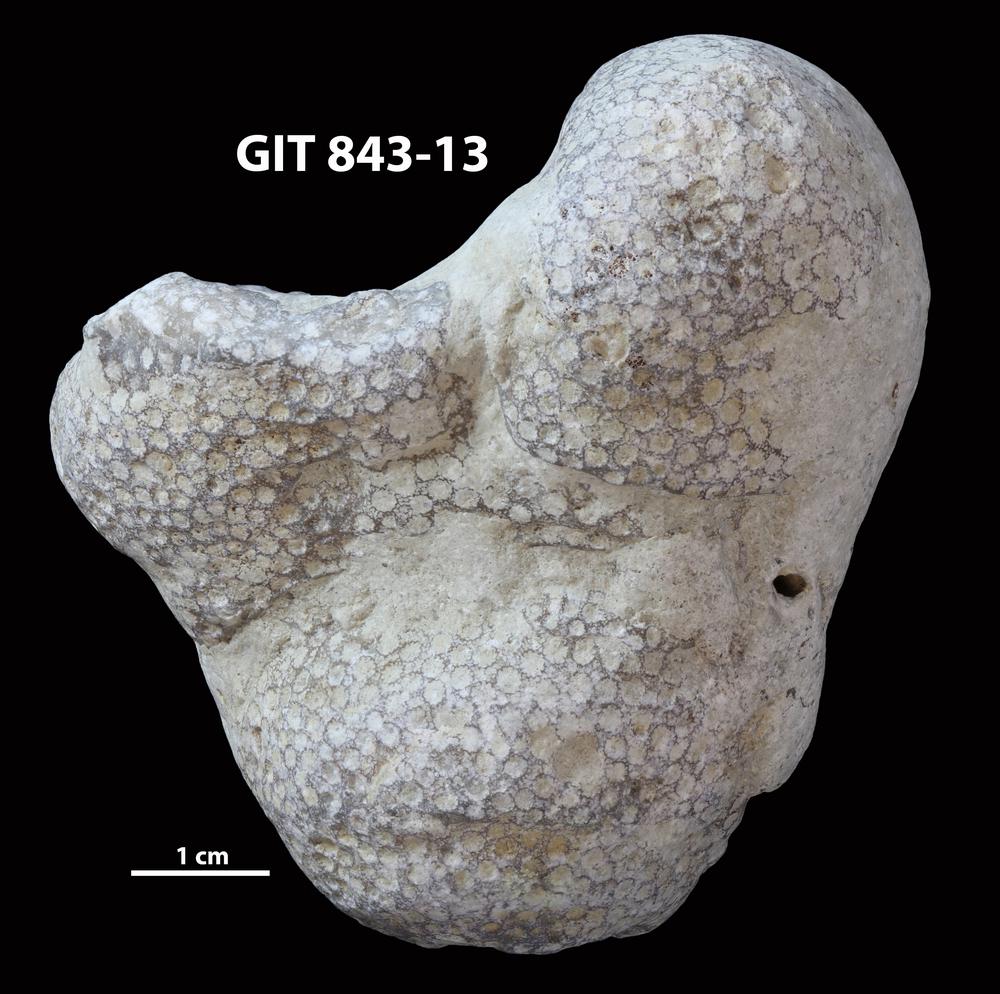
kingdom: Animalia
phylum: Xenacoelomorpha
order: Acoela
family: Proporidae
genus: Propora
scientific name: Propora
